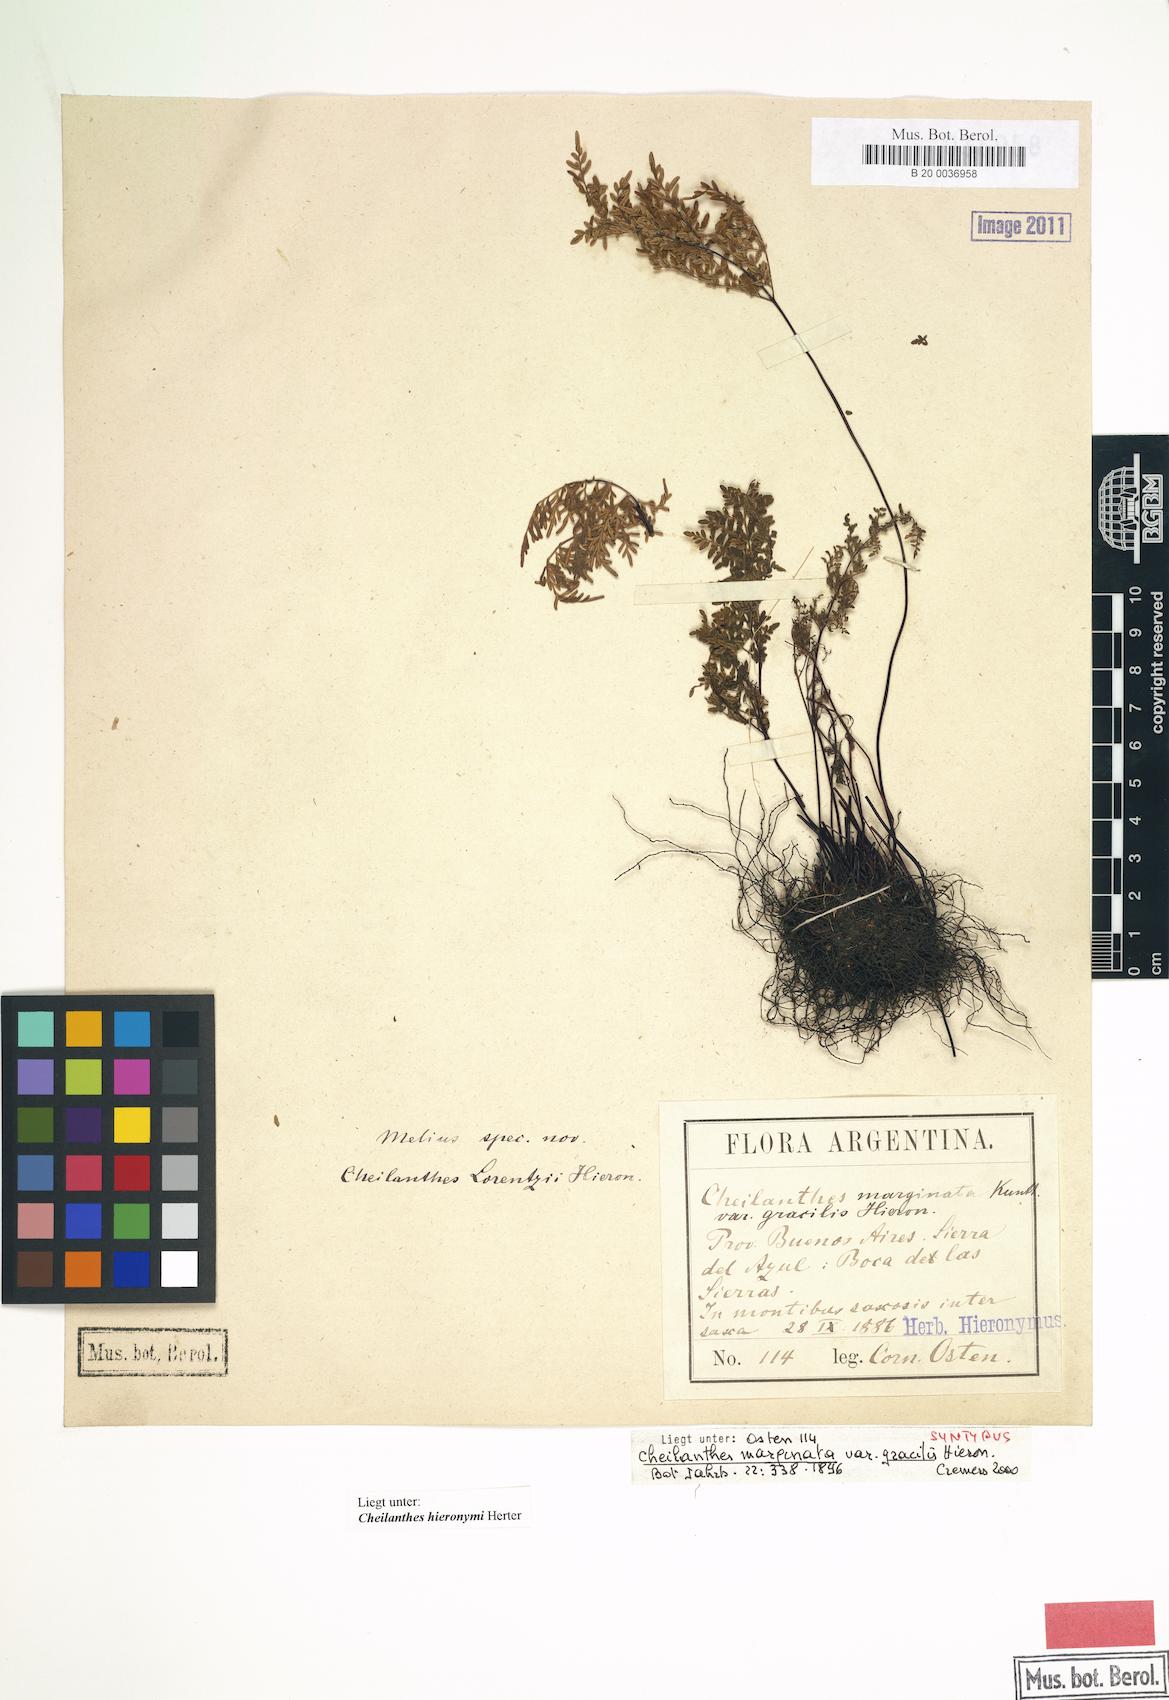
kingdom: Plantae
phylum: Tracheophyta
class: Polypodiopsida
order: Polypodiales
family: Pteridaceae
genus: Cheilanthes
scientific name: Cheilanthes hieronymi
